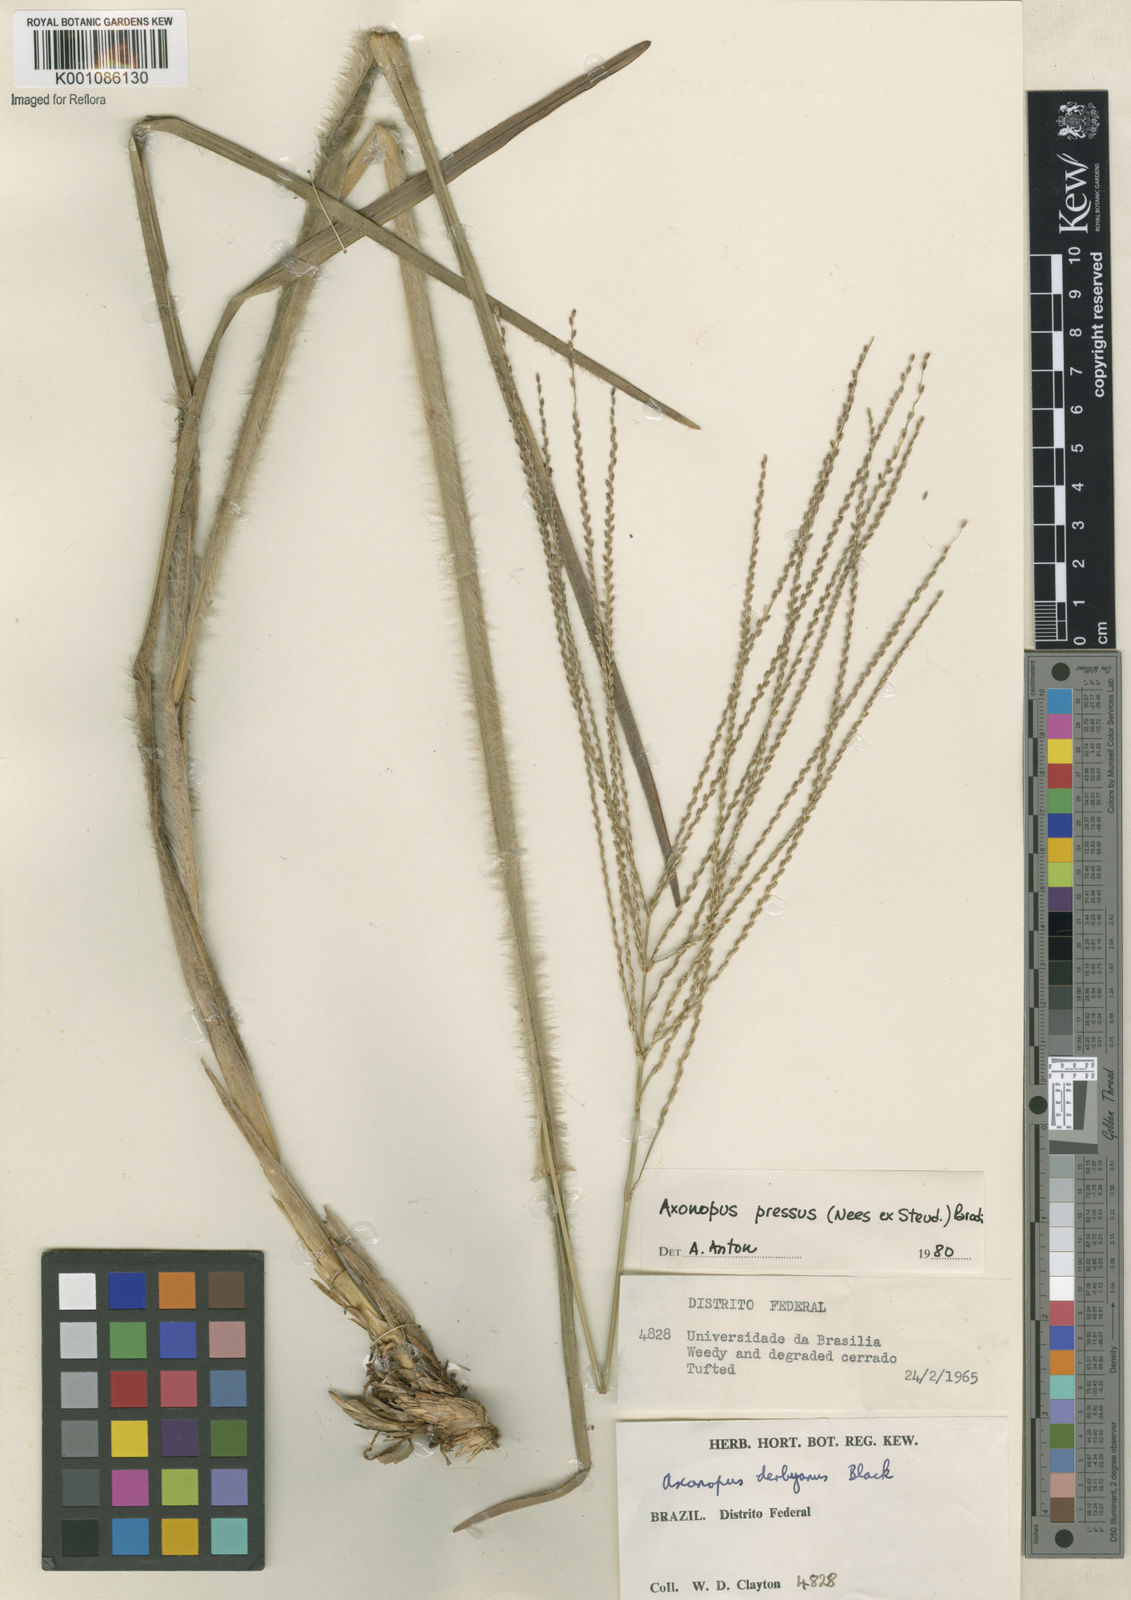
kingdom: Plantae
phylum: Tracheophyta
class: Liliopsida
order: Poales
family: Poaceae
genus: Axonopus
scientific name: Axonopus pressus
